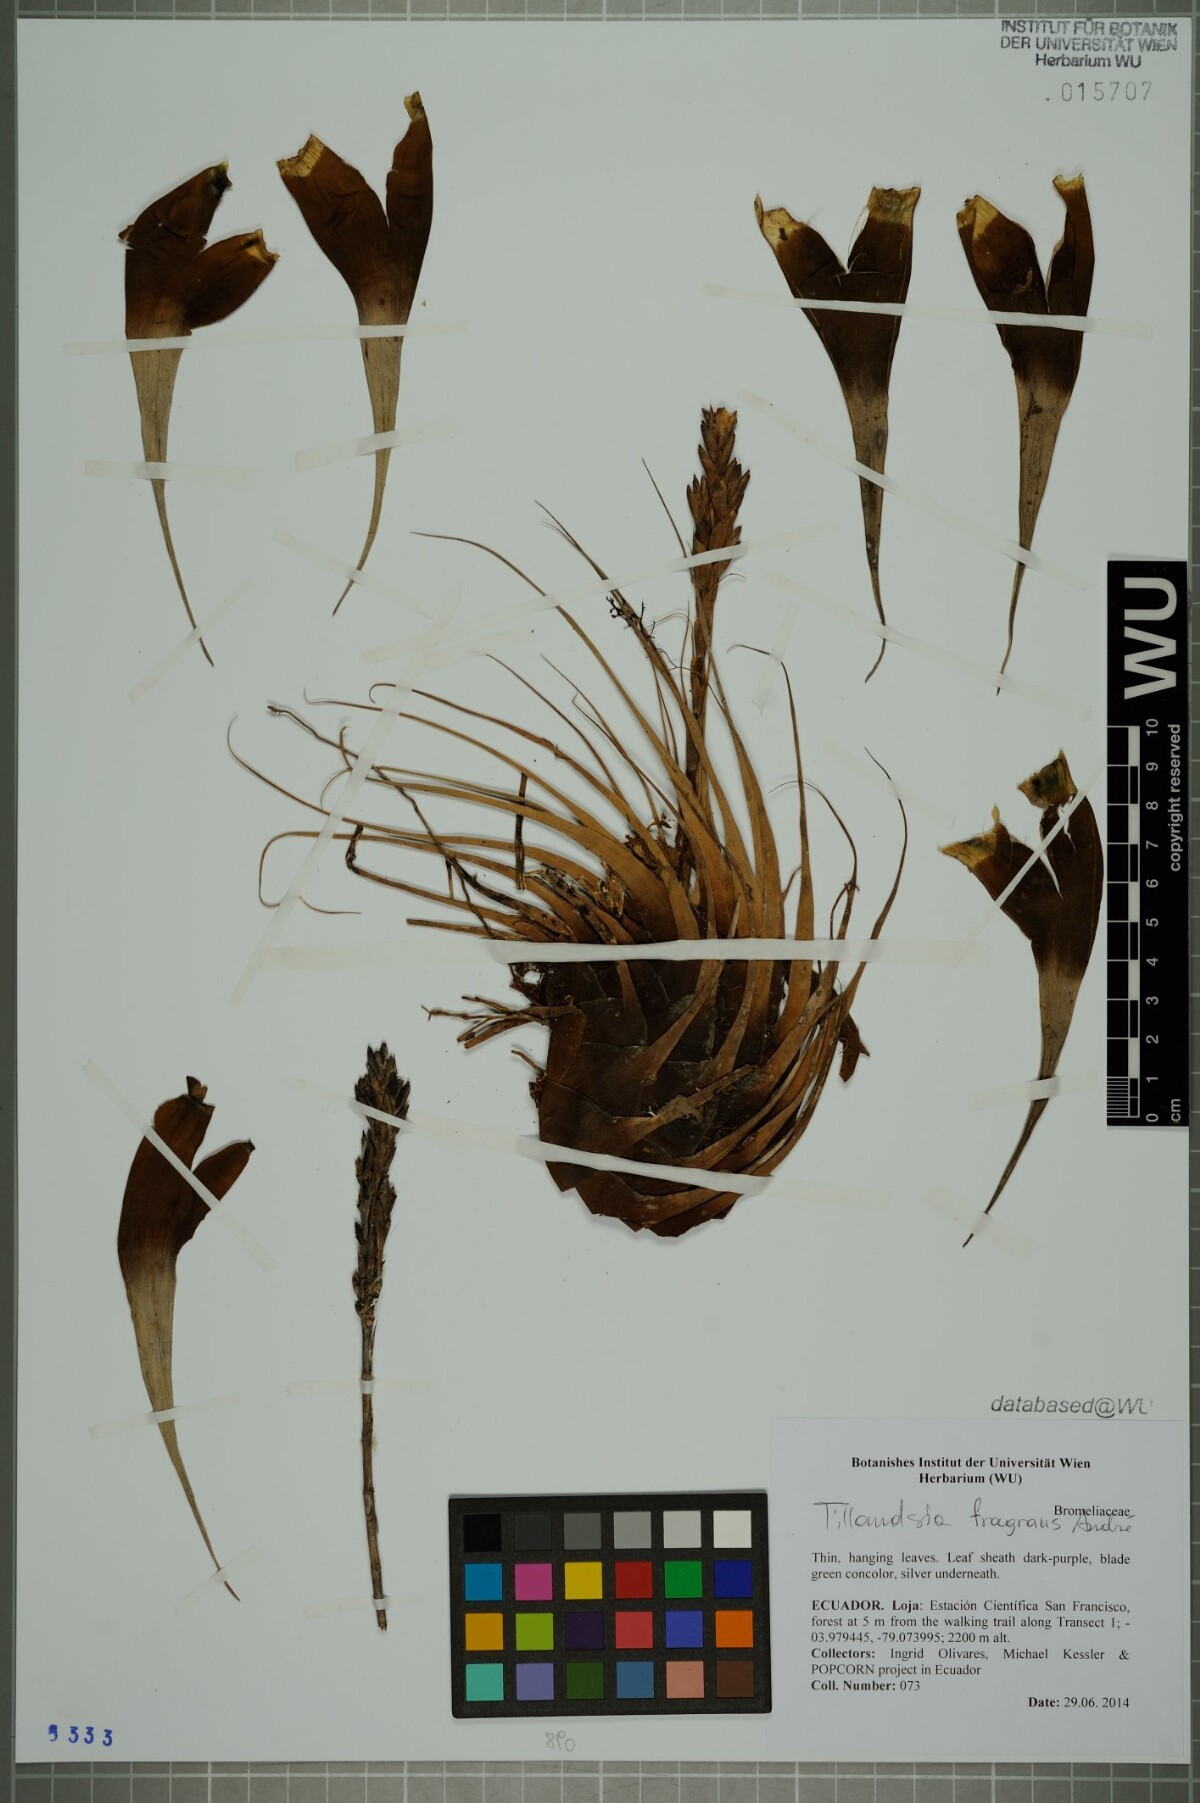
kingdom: Plantae
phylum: Tracheophyta
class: Liliopsida
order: Poales
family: Bromeliaceae
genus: Tillandsia
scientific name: Tillandsia fragrans
